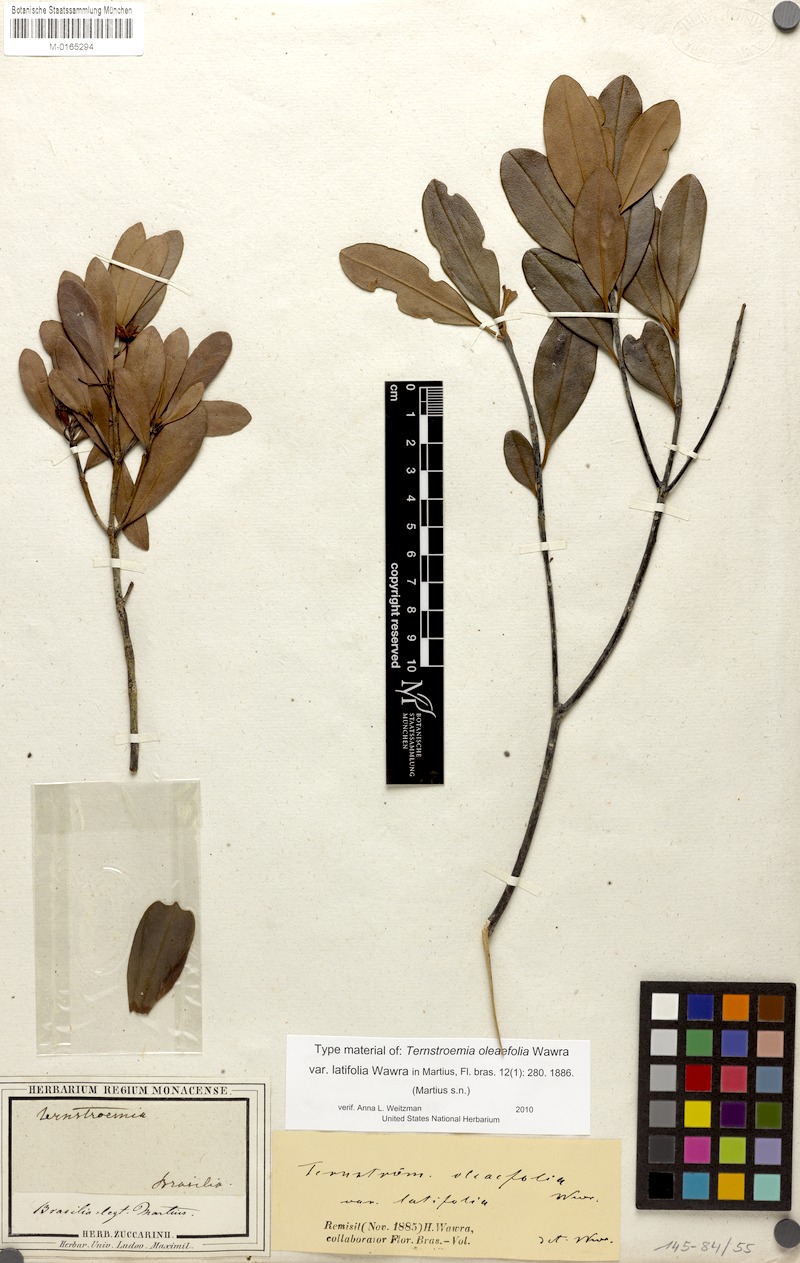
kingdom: Plantae
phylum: Tracheophyta
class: Magnoliopsida
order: Ericales
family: Pentaphylacaceae
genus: Ternstroemia
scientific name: Ternstroemia oleifolia
